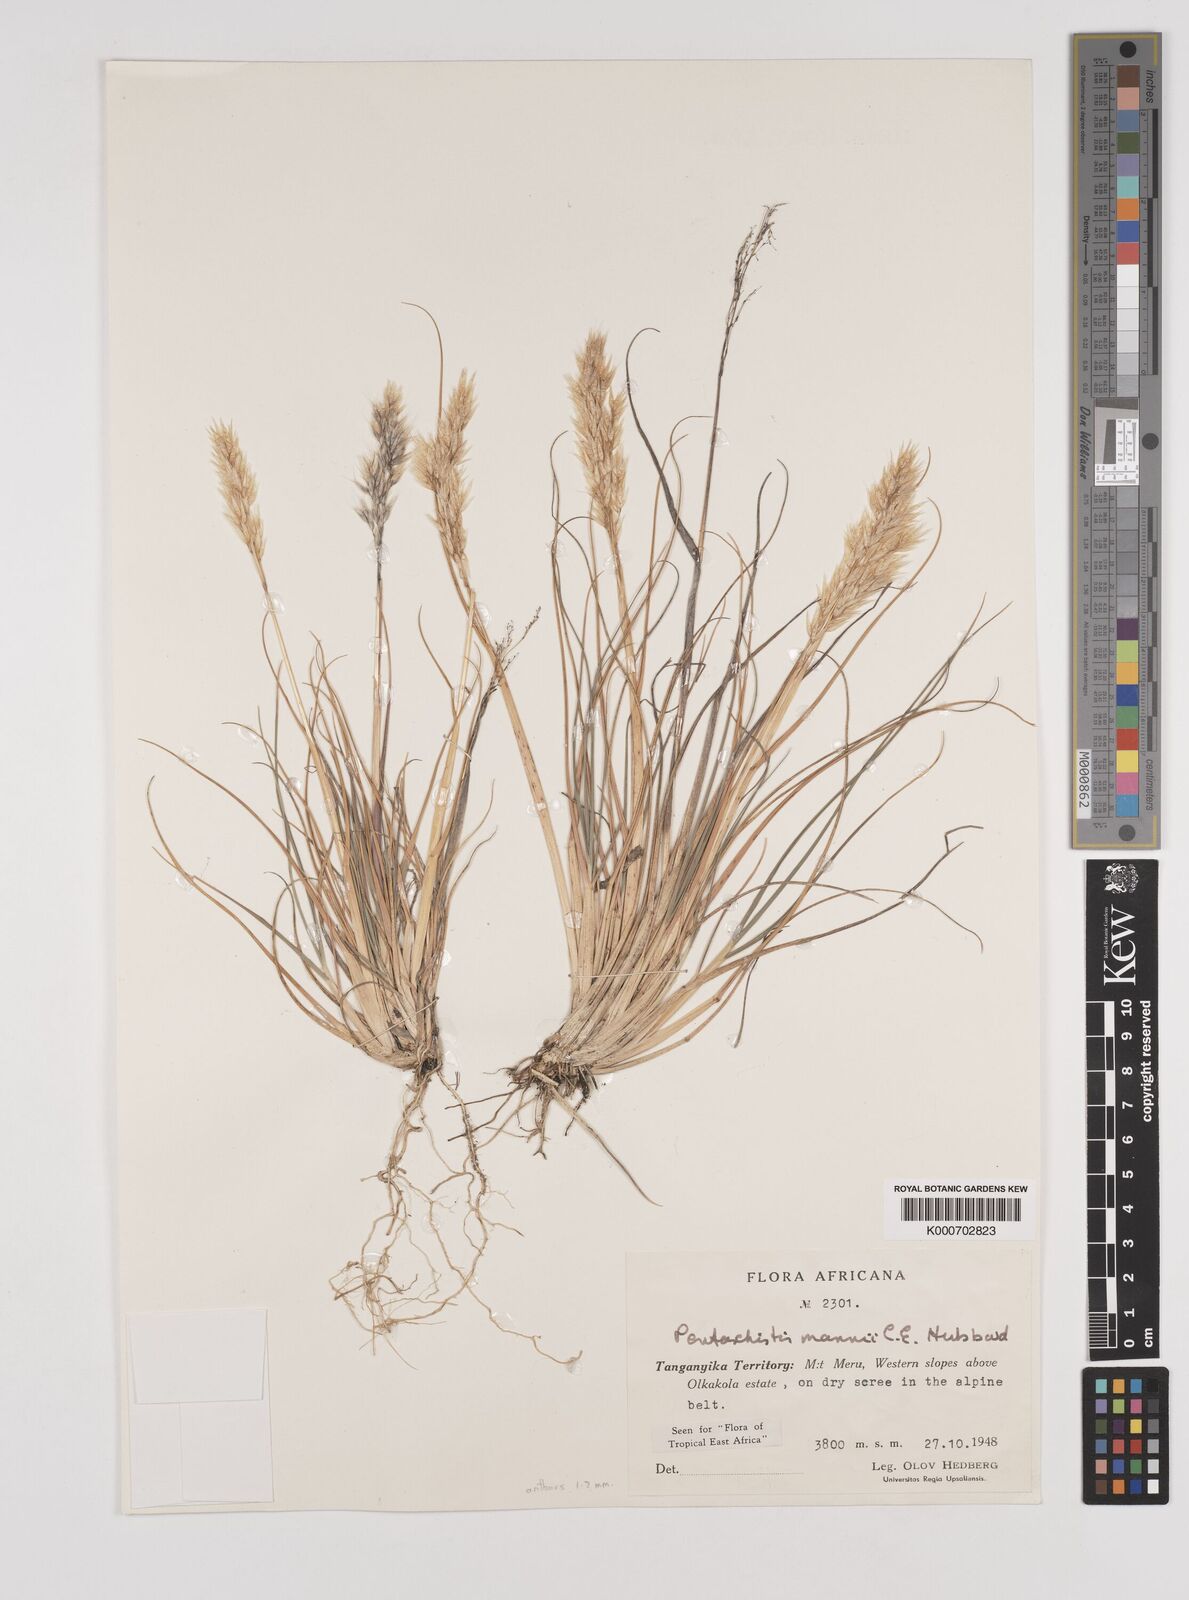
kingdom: Plantae
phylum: Tracheophyta
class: Liliopsida
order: Poales
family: Poaceae
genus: Pentameris
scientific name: Pentameris pictigluma
